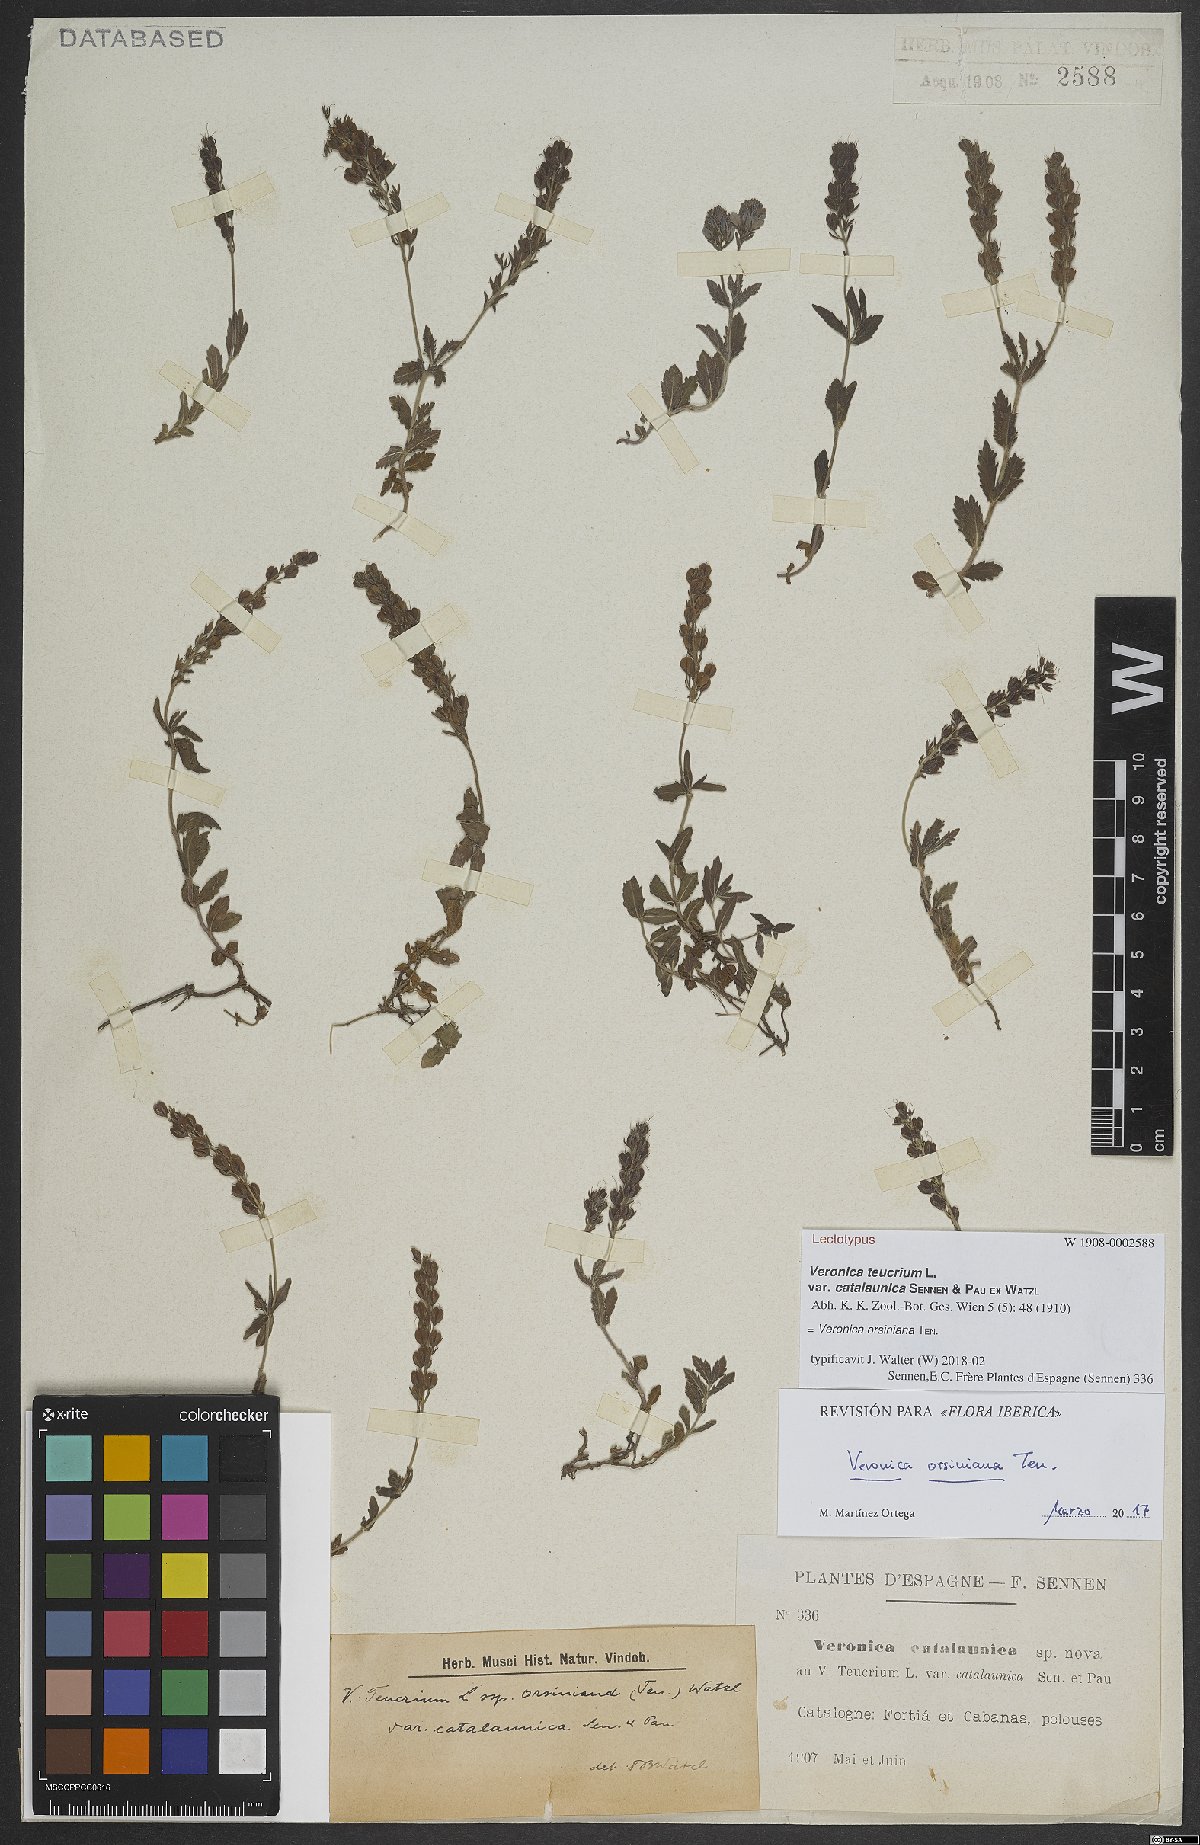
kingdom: Plantae
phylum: Tracheophyta
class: Magnoliopsida
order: Lamiales
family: Plantaginaceae
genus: Veronica
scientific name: Veronica orsiniana
